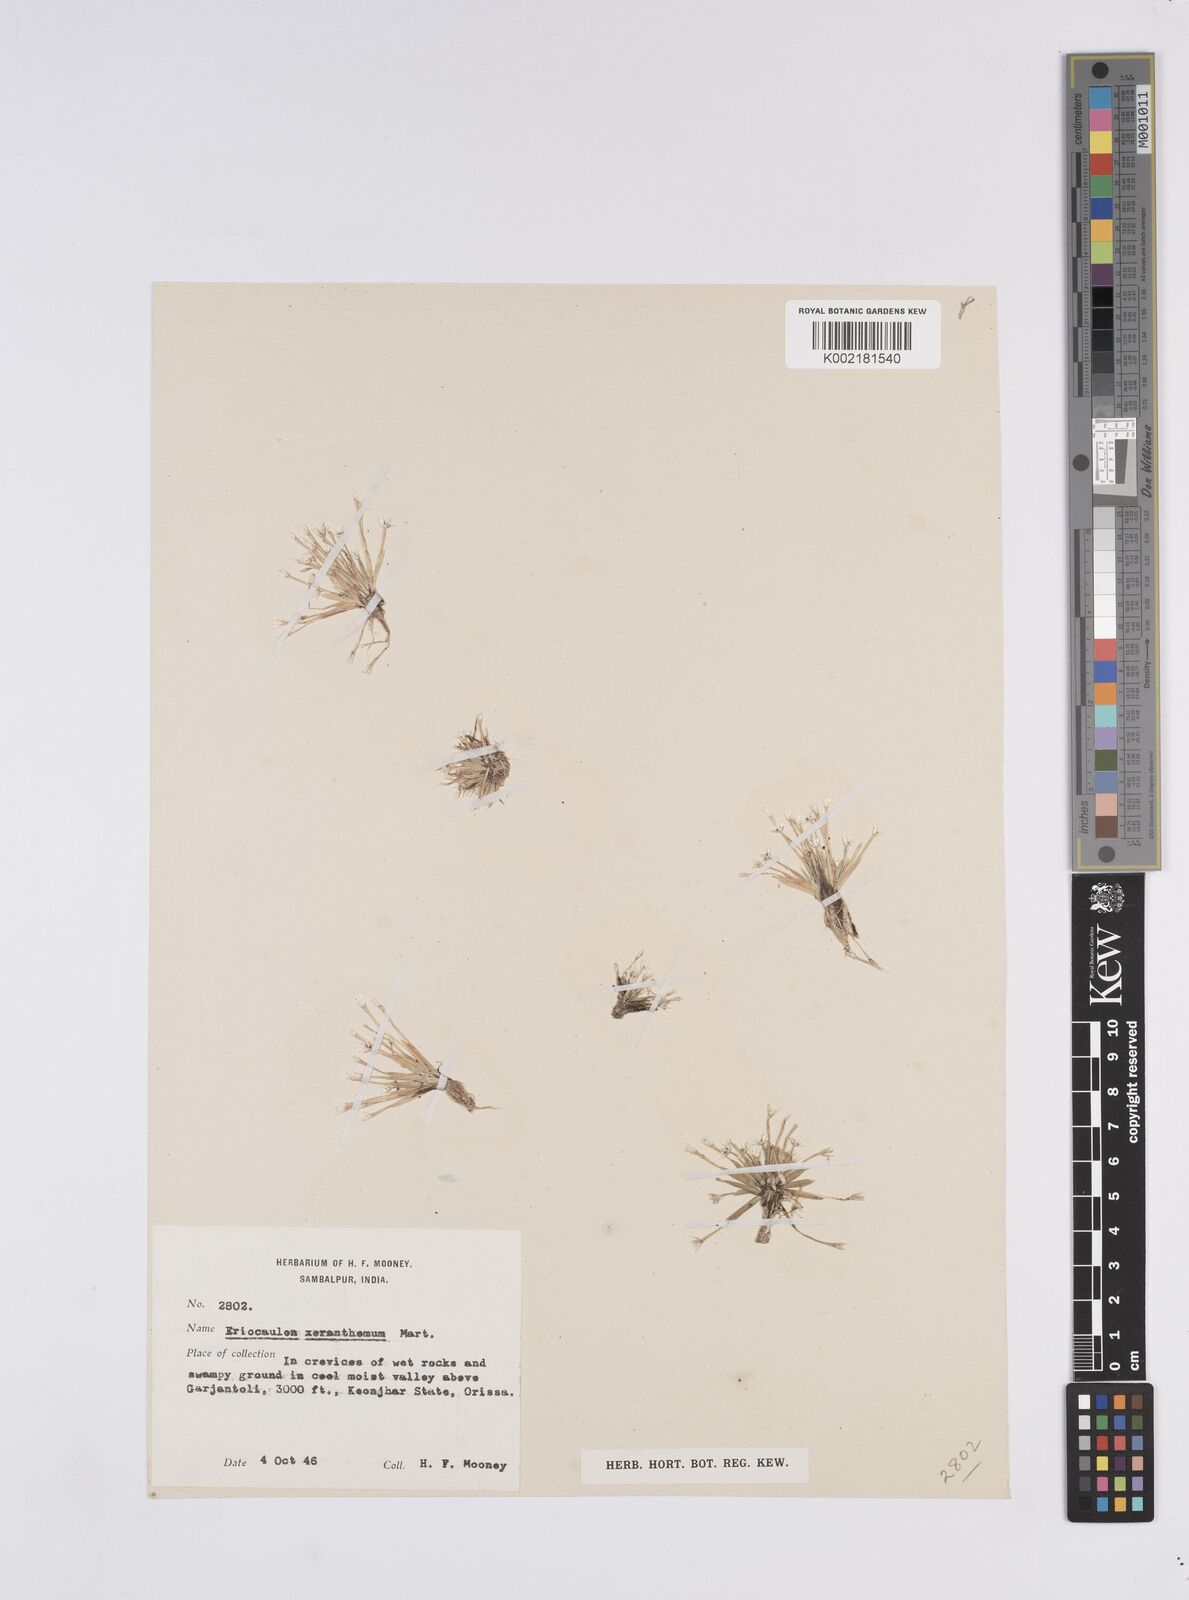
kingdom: Plantae
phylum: Tracheophyta
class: Liliopsida
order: Poales
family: Eriocaulaceae
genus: Eriocaulon
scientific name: Eriocaulon xeranthemum
